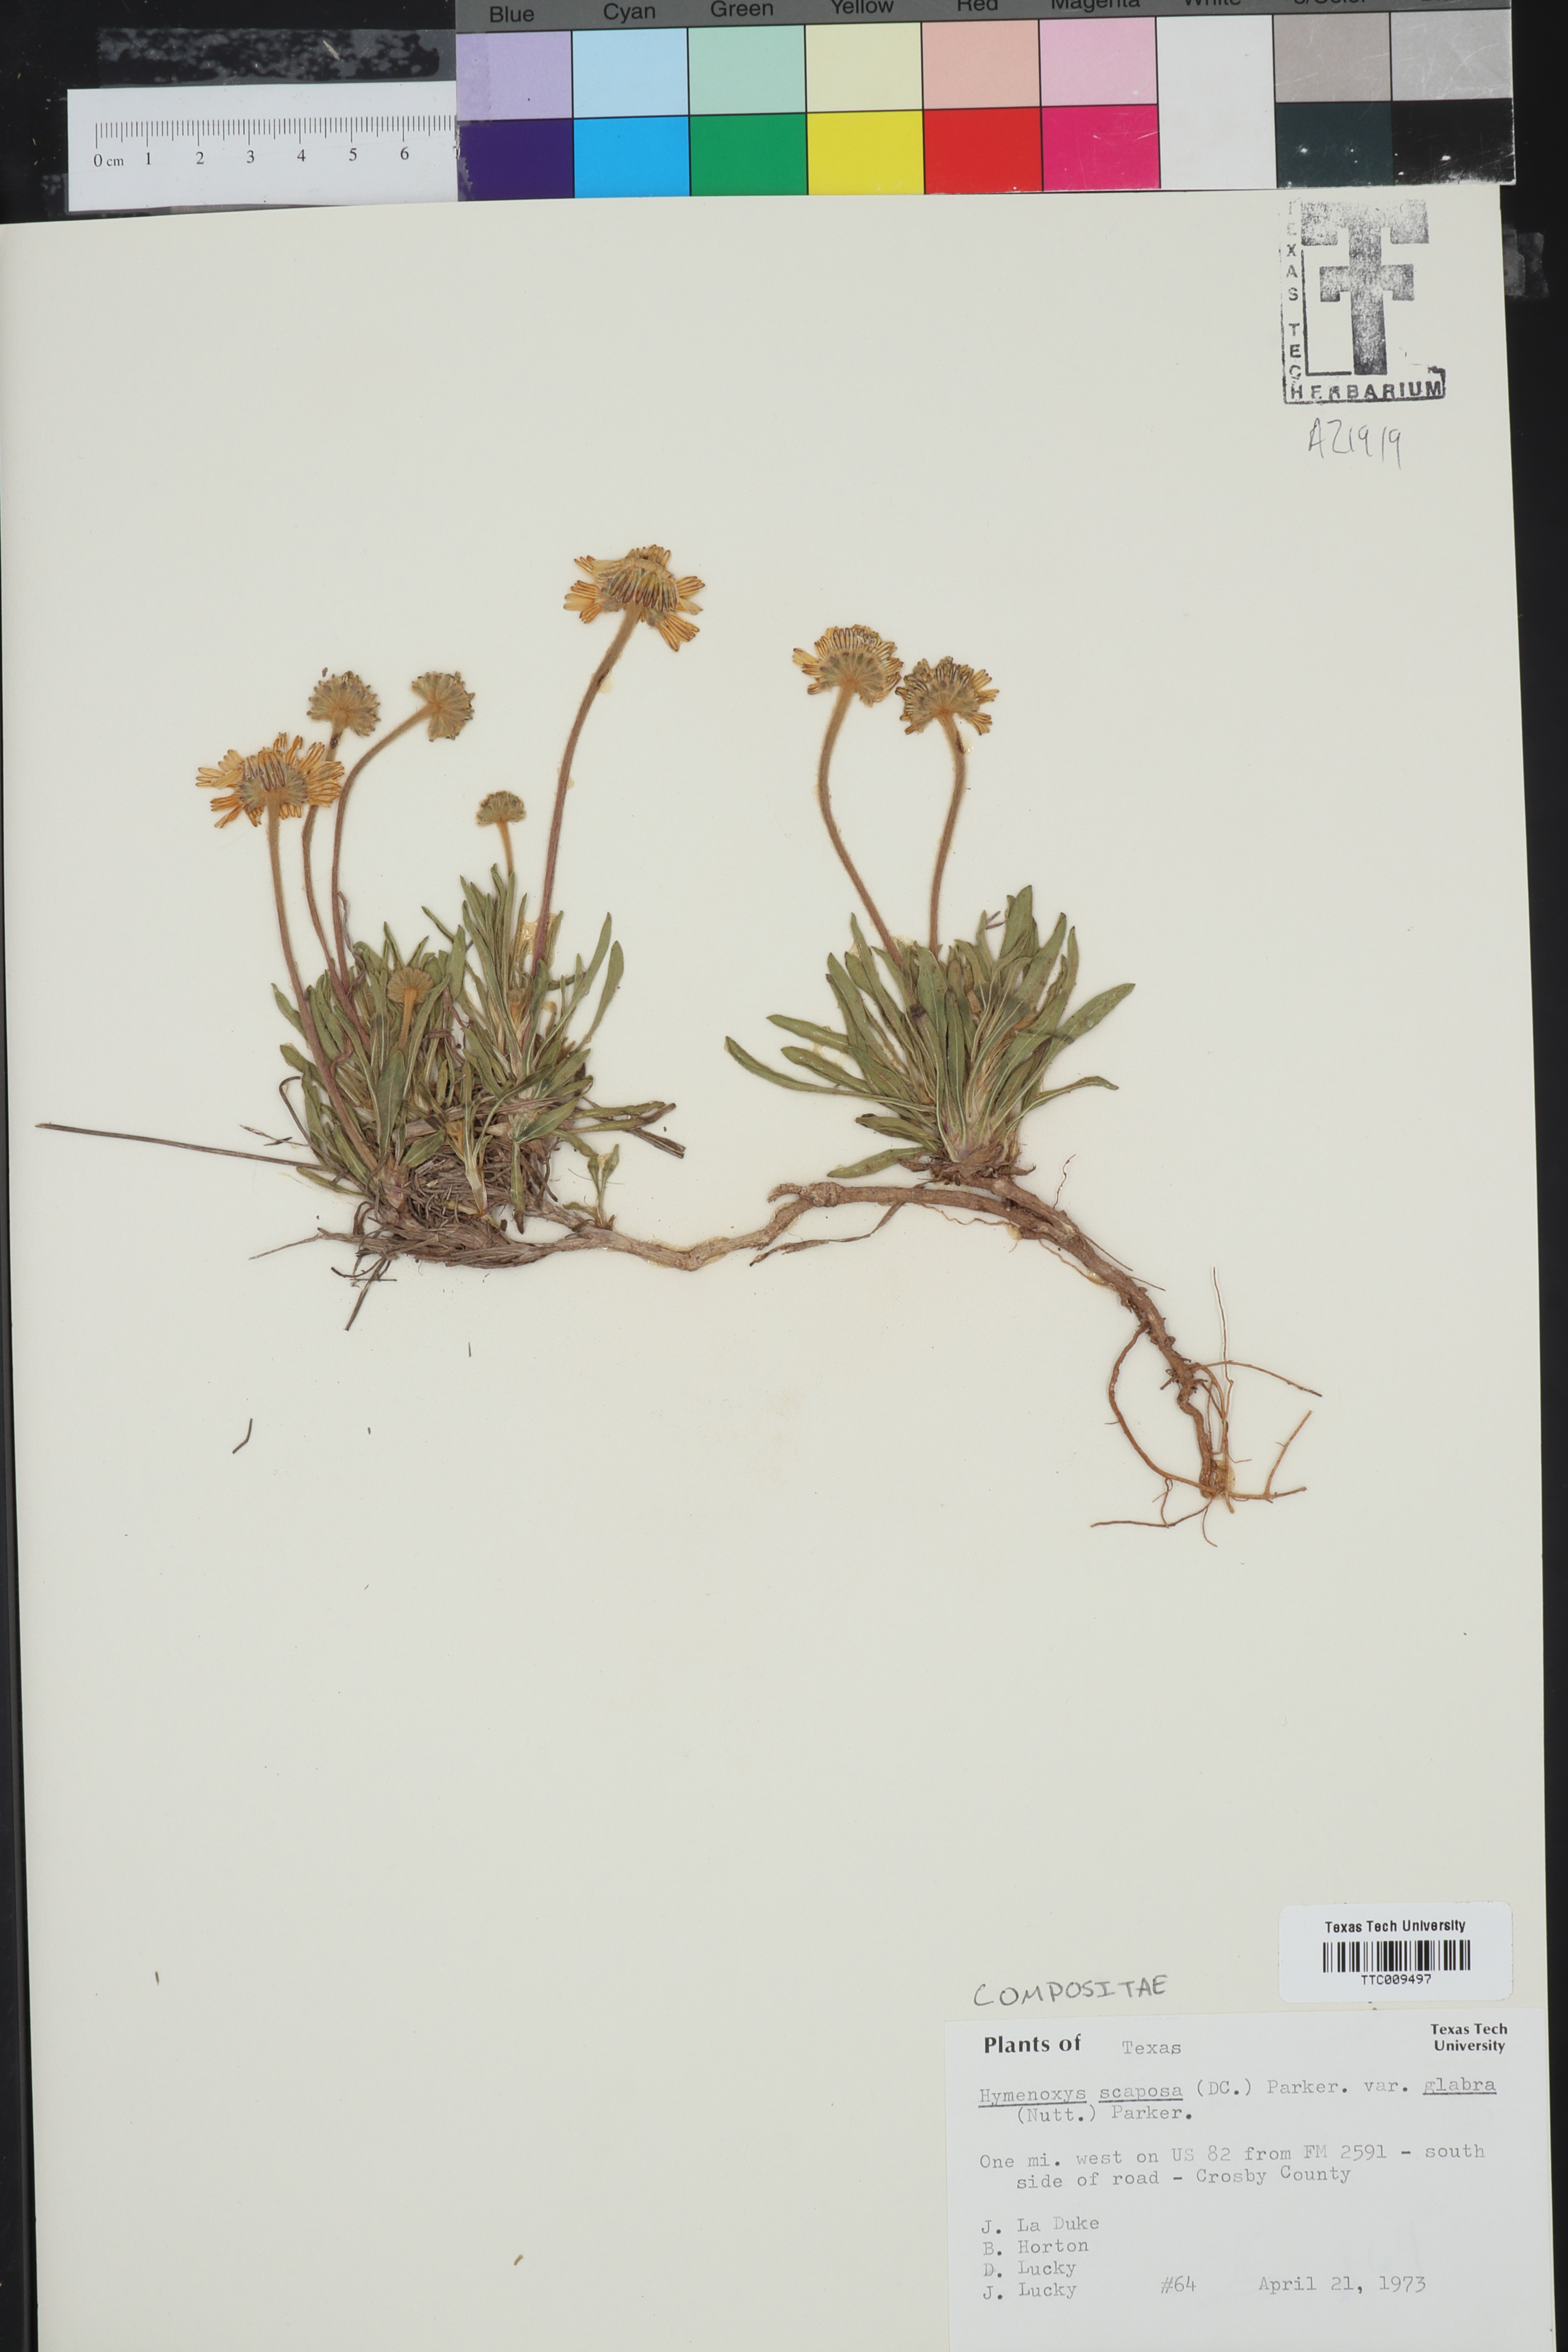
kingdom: Plantae
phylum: Tracheophyta
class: Magnoliopsida
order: Asterales
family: Asteraceae
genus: Tetraneuris
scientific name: Tetraneuris scaposa
